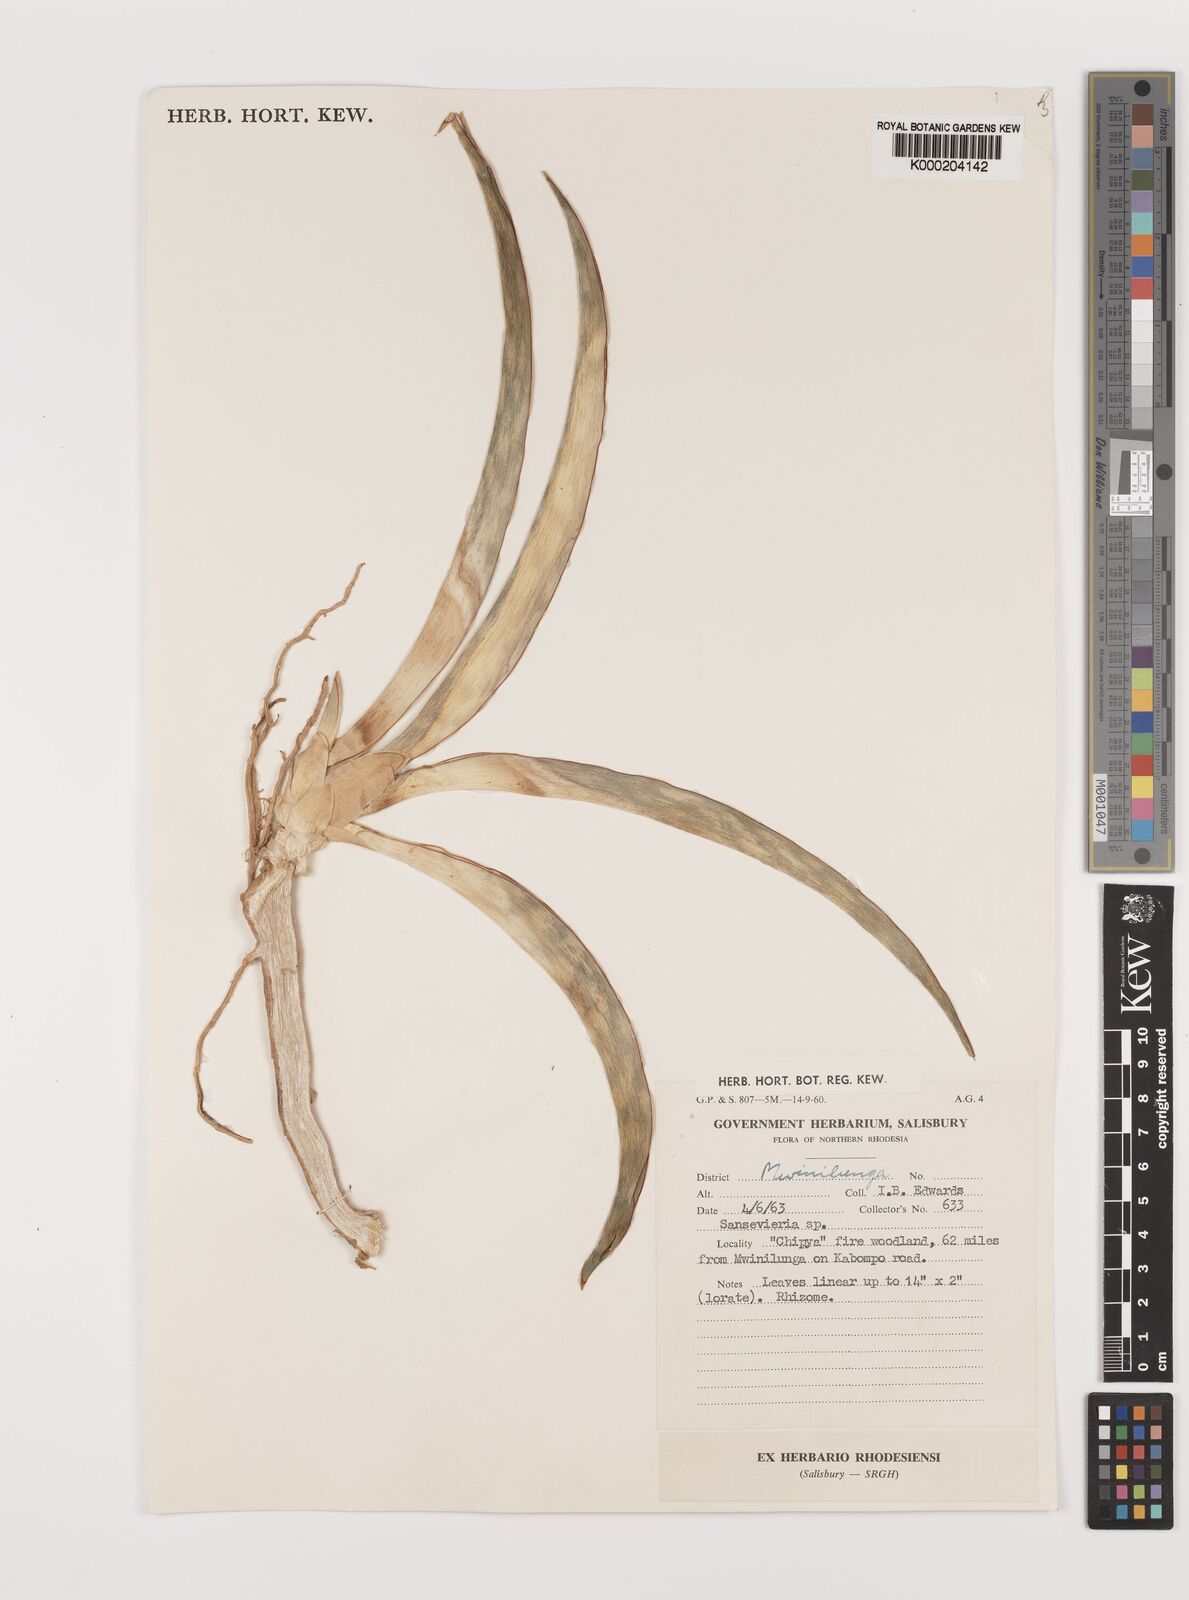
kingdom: Plantae
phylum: Tracheophyta
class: Liliopsida
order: Asparagales
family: Asparagaceae
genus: Dracaena
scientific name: Dracaena
